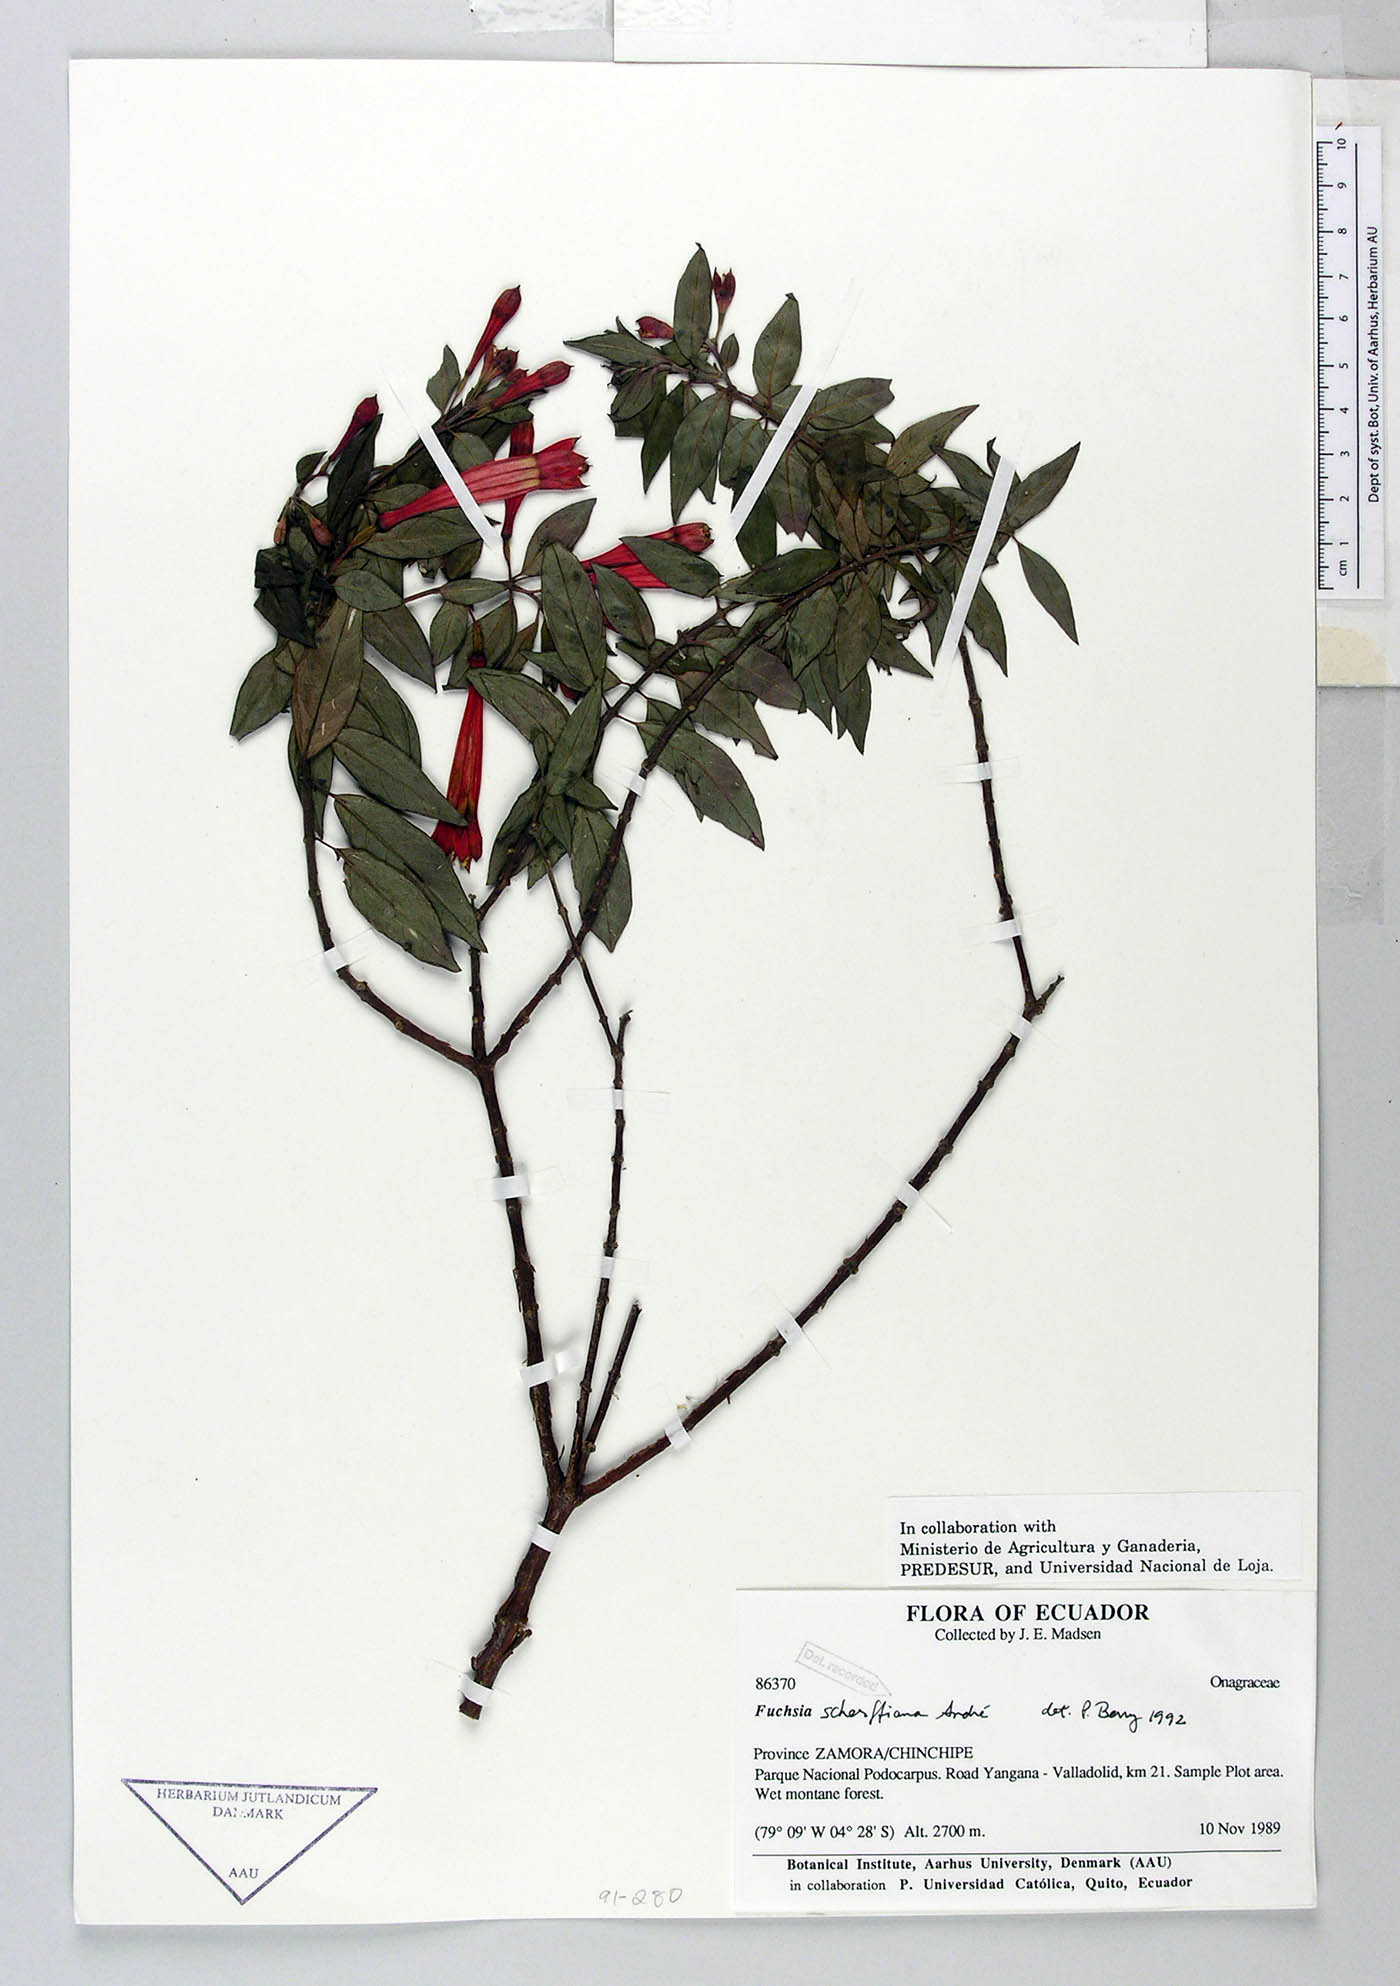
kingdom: Plantae
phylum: Tracheophyta
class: Magnoliopsida
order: Myrtales
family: Onagraceae
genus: Fuchsia
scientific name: Fuchsia scherffiana
